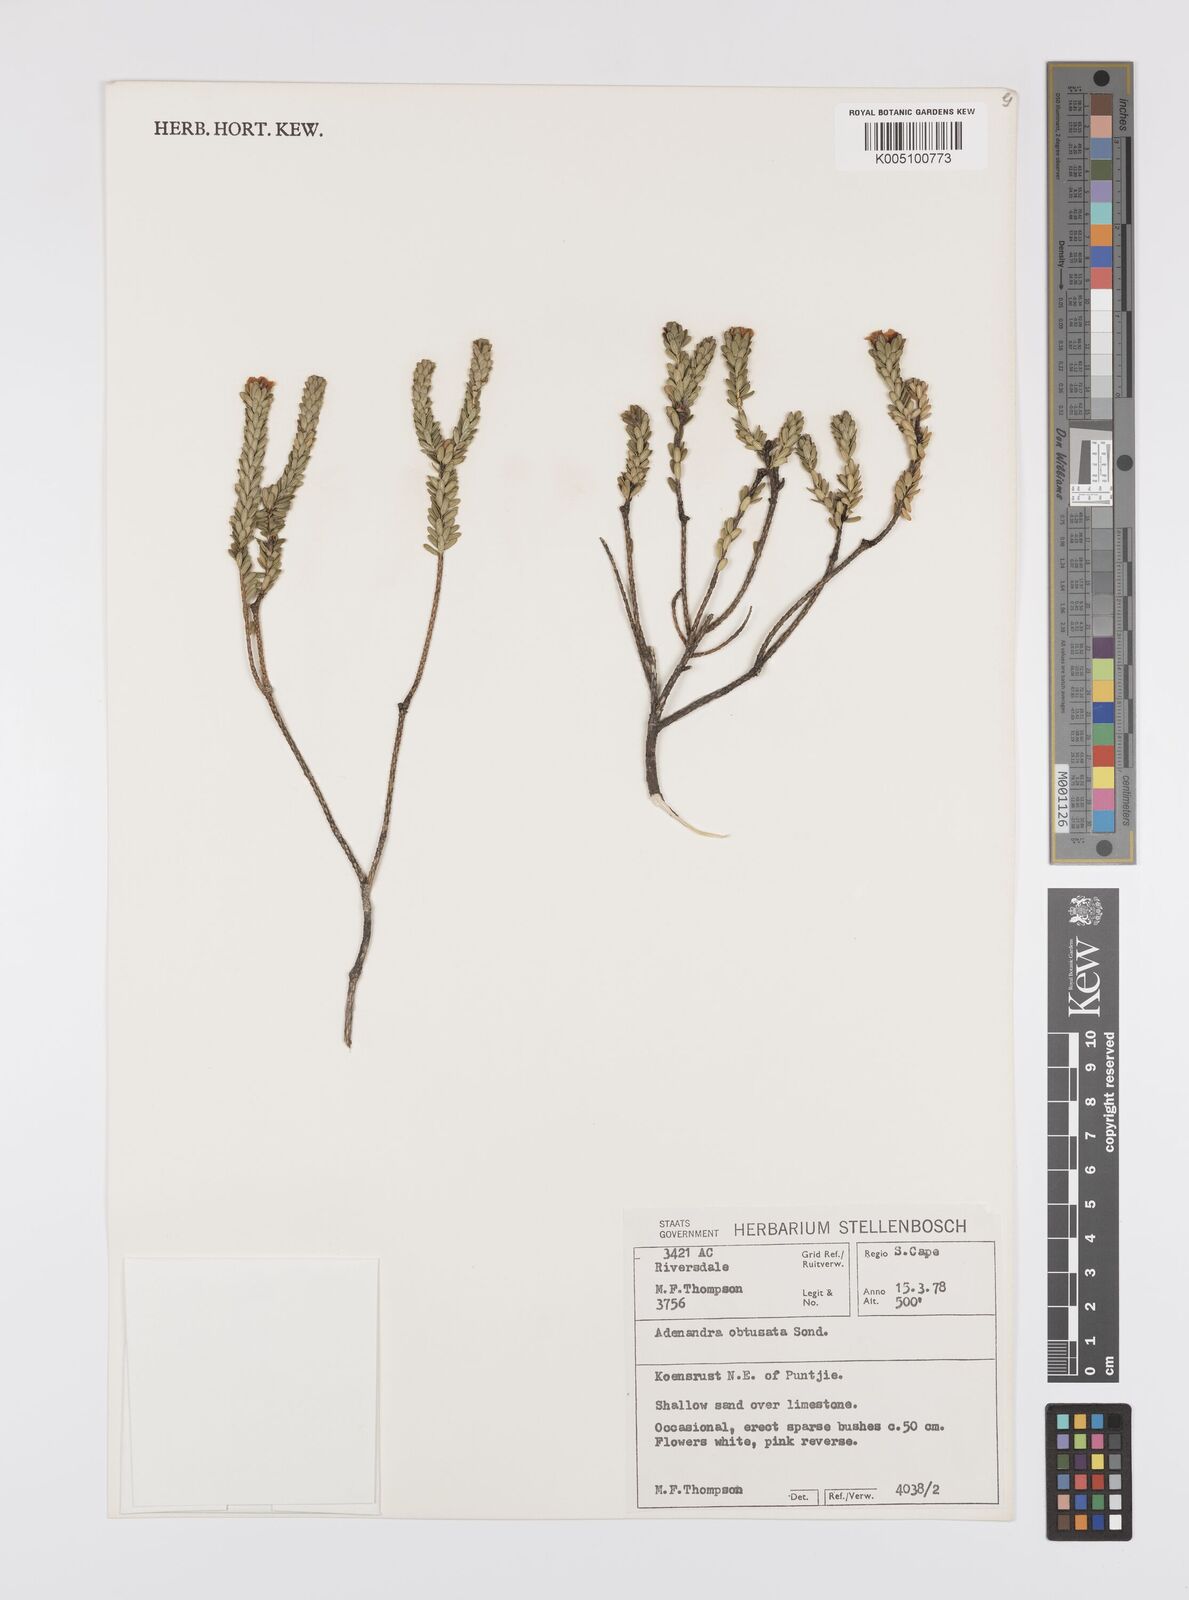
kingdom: Plantae
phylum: Tracheophyta
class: Magnoliopsida
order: Sapindales
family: Rutaceae
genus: Adenandra
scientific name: Adenandra obtusata
